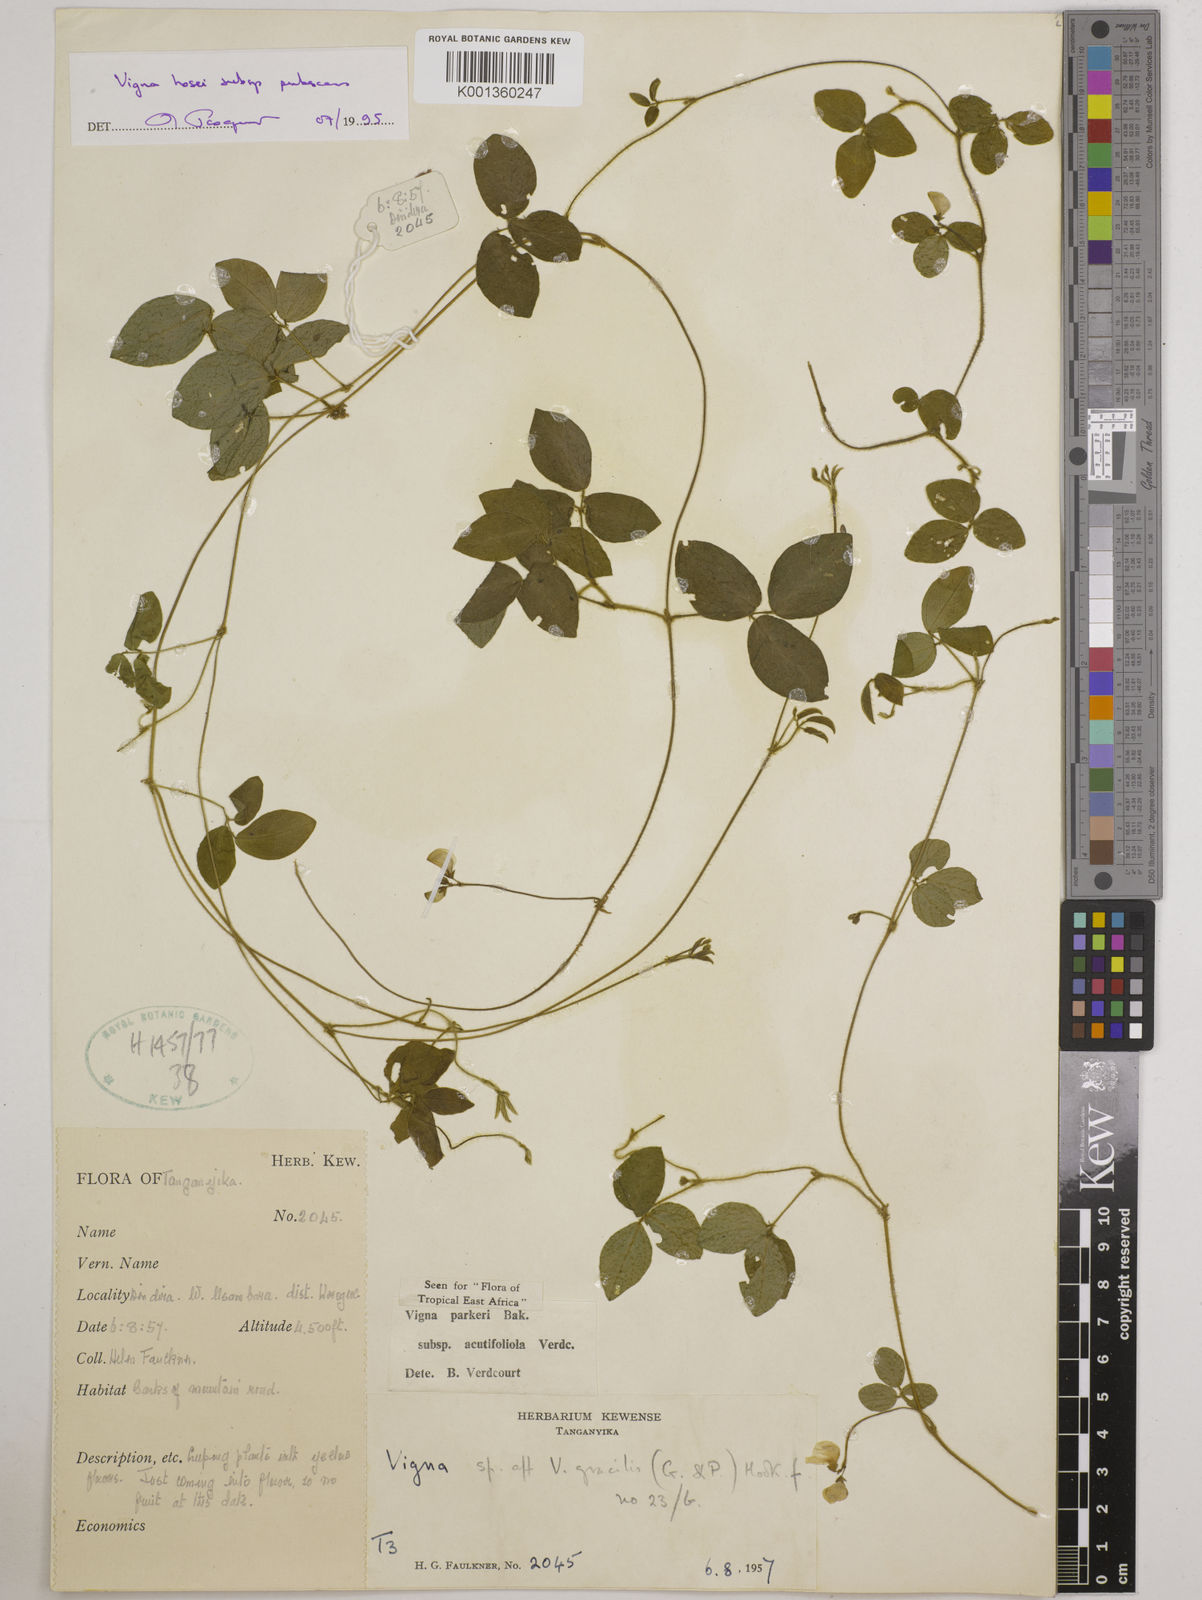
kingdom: Plantae
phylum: Tracheophyta
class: Magnoliopsida
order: Fabales
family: Fabaceae
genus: Vigna
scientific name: Vigna
